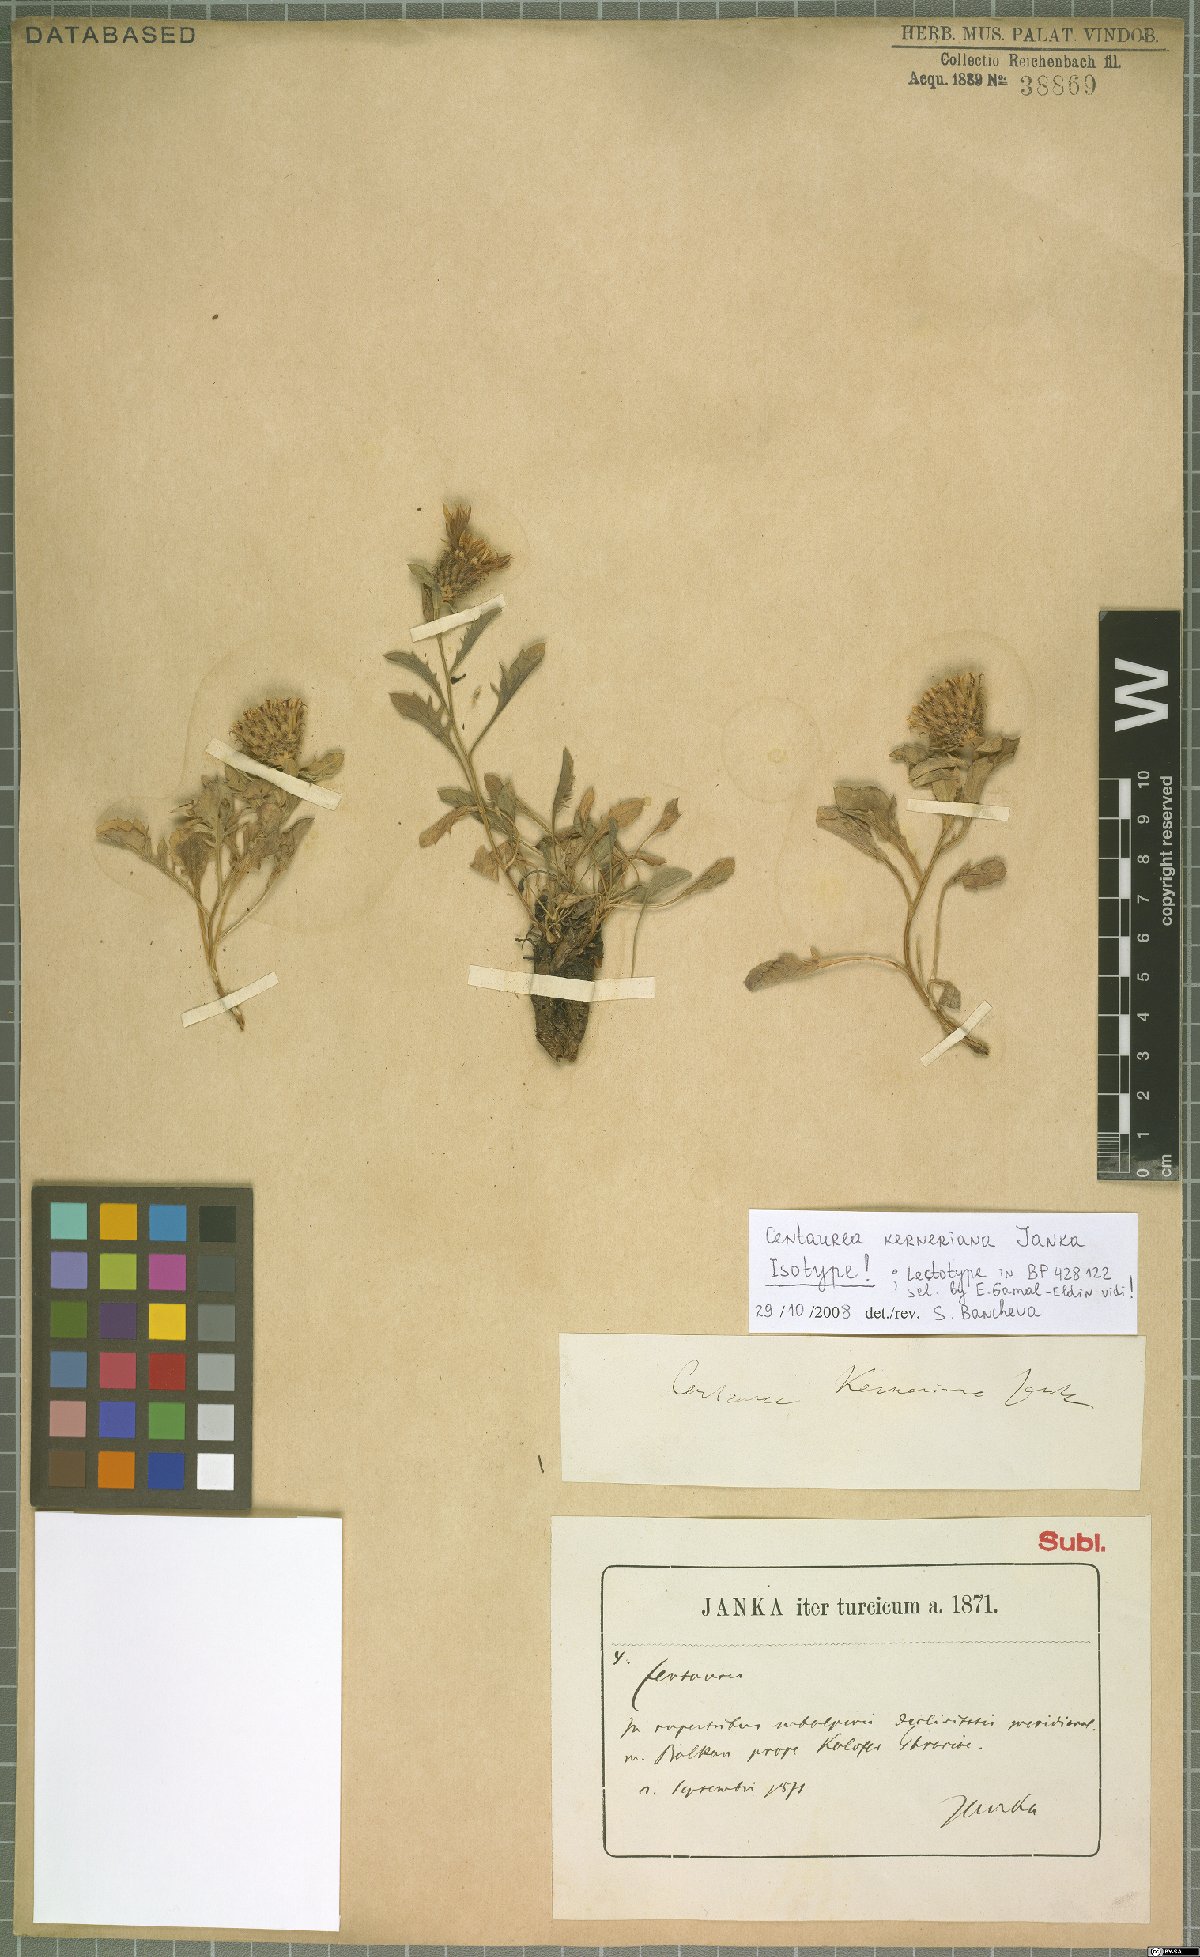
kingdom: Plantae
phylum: Tracheophyta
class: Magnoliopsida
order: Asterales
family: Asteraceae
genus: Centaurea
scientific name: Centaurea kerneriana
